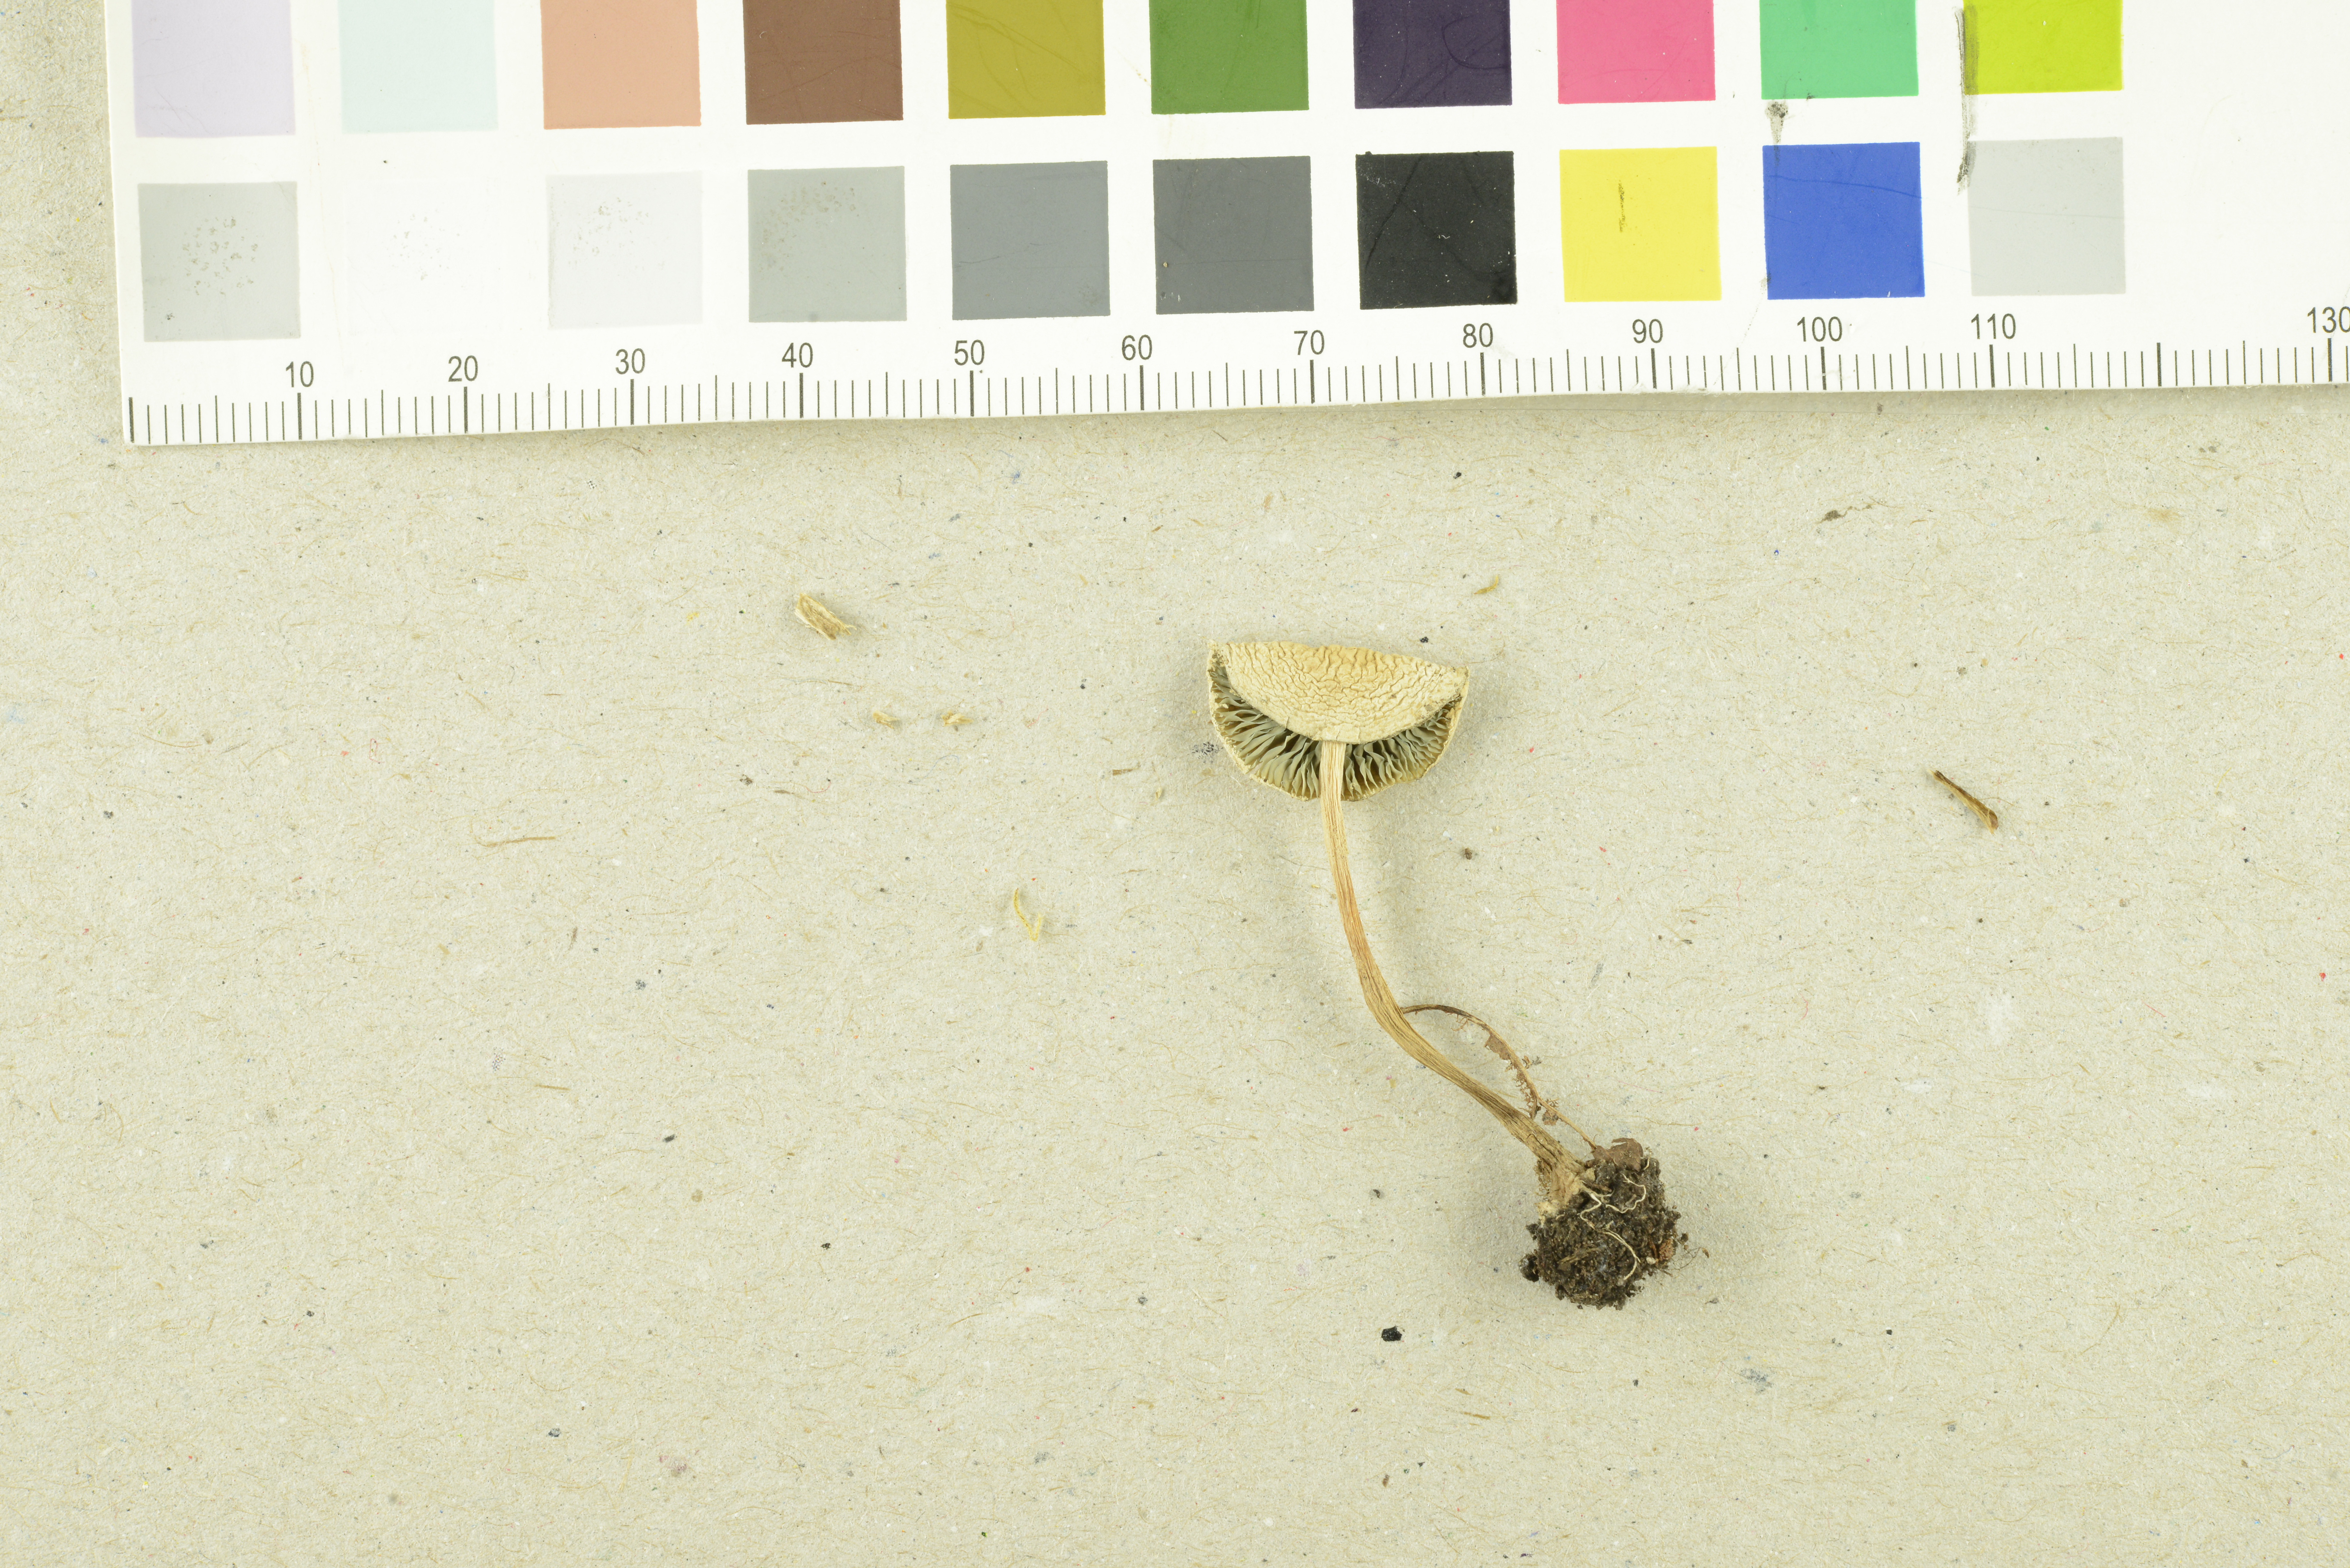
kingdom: Fungi
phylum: Basidiomycota
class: Agaricomycetes
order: Agaricales
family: Agaricaceae
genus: Melanophyllum
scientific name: Melanophyllum eyrei
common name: Greenspored dapperling
